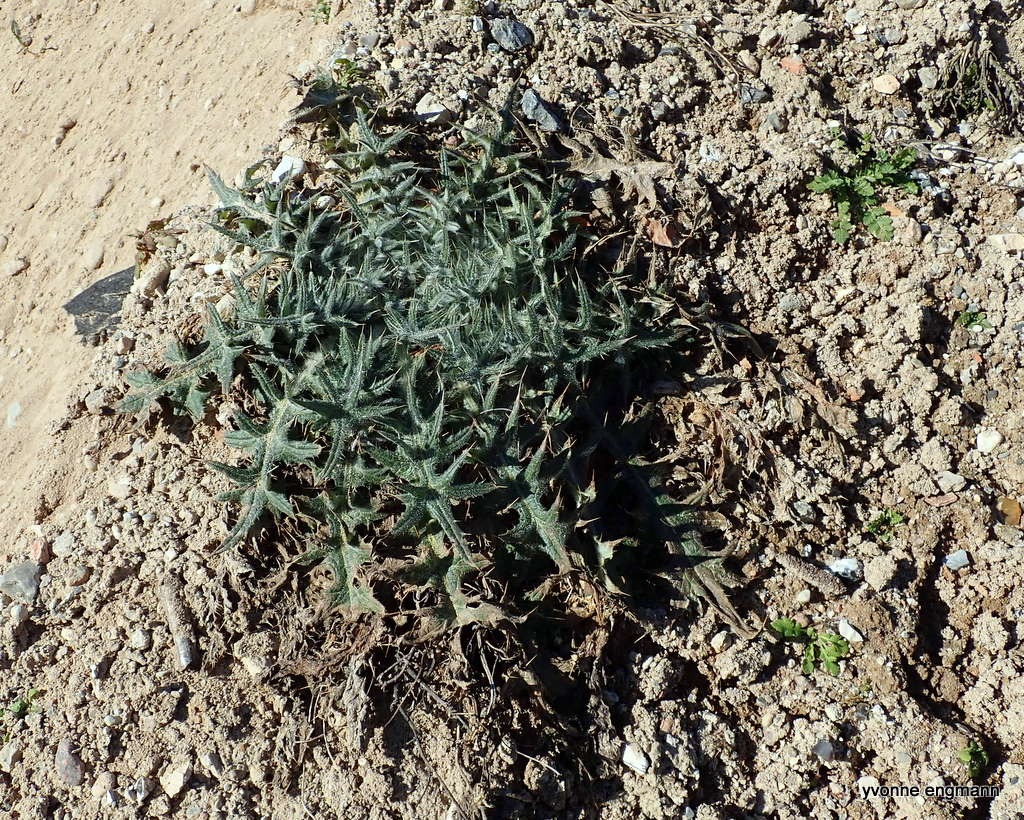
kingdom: Plantae
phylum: Tracheophyta
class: Magnoliopsida
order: Asterales
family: Asteraceae
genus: Cirsium
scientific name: Cirsium vulgare
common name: Horse-tidsel
